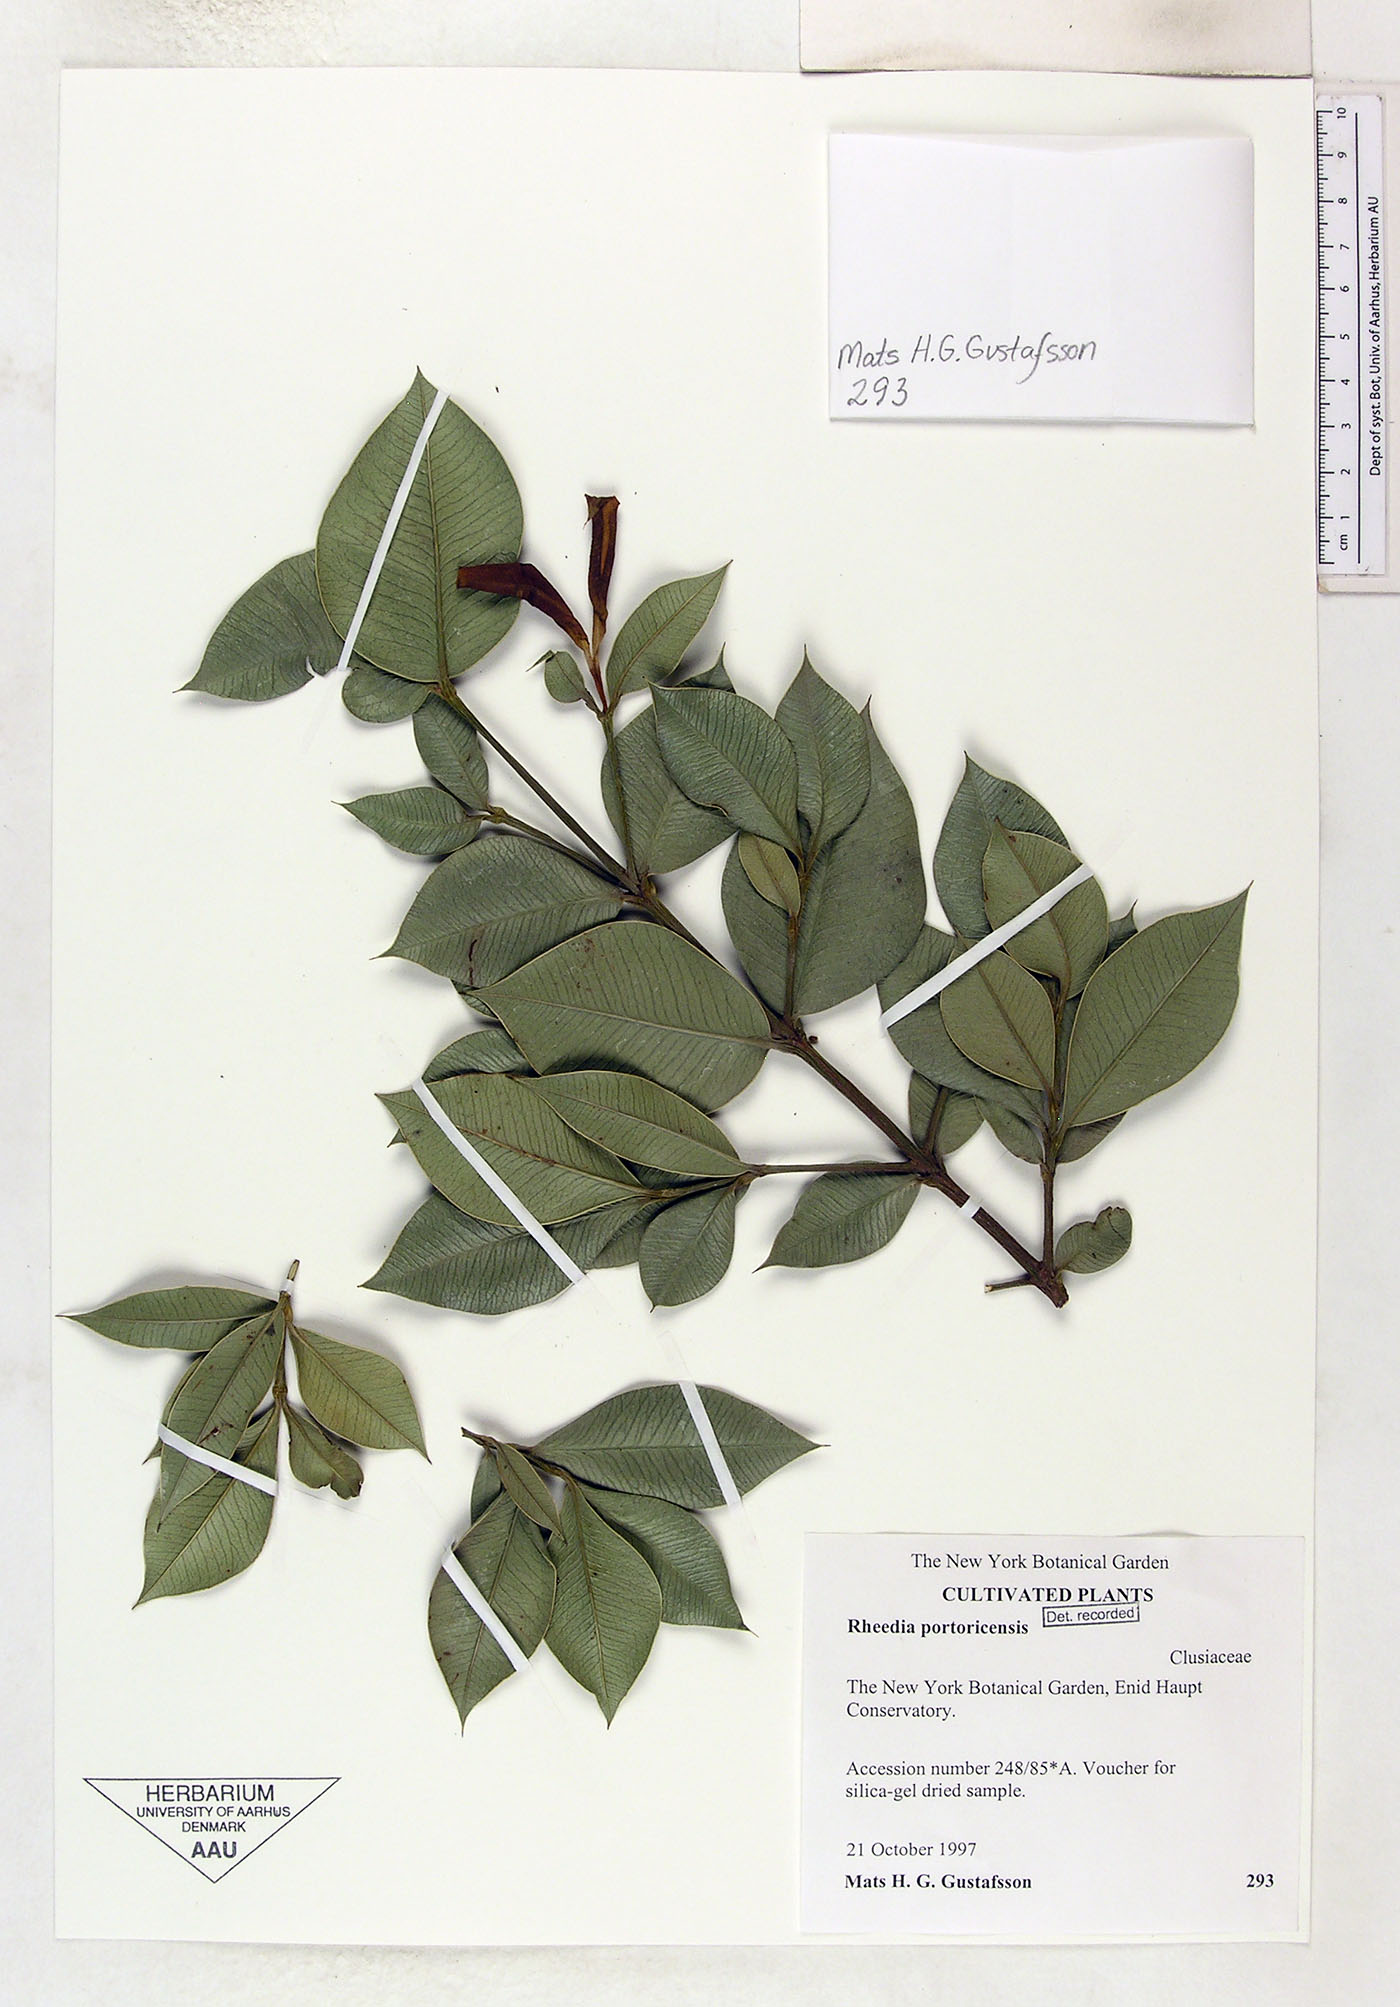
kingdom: Plantae
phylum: Tracheophyta
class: Magnoliopsida
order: Malpighiales
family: Clusiaceae
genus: Garcinia
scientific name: Garcinia portoricensis
